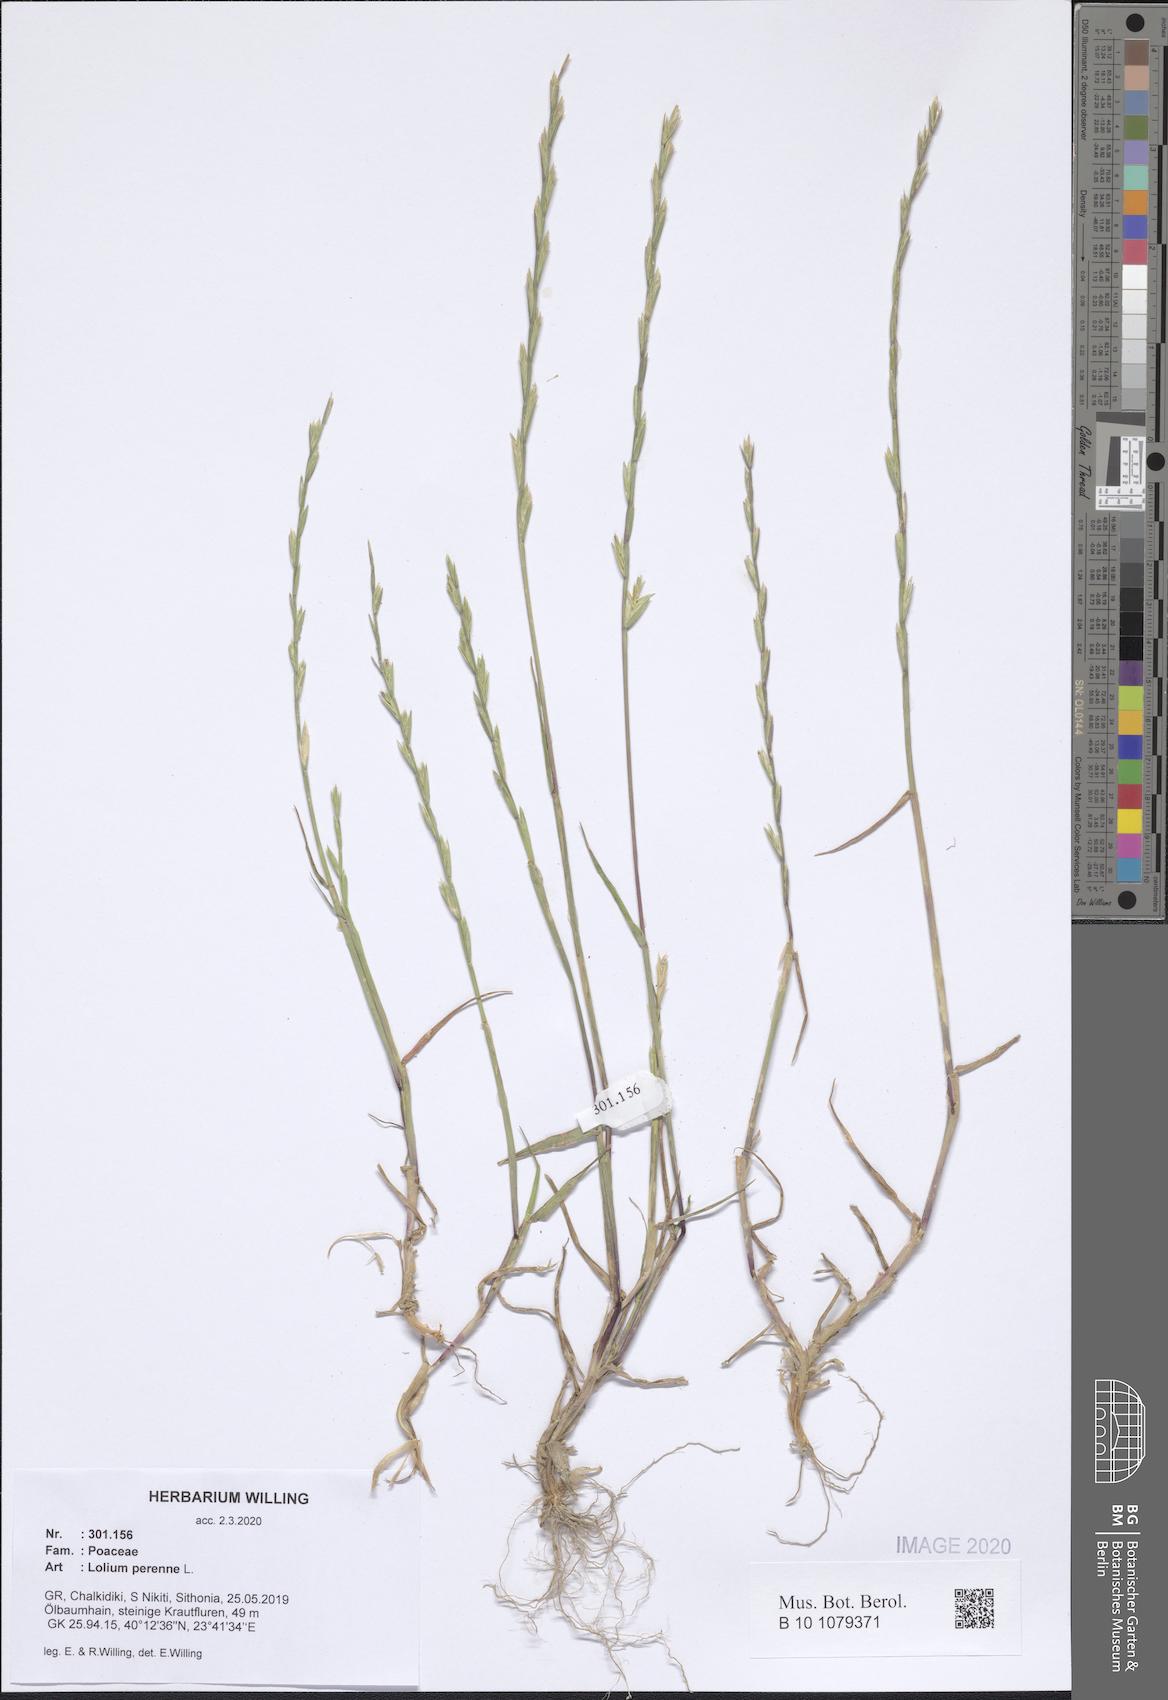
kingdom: Plantae
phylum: Tracheophyta
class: Liliopsida
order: Poales
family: Poaceae
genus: Lolium
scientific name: Lolium perenne
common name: Perennial ryegrass
